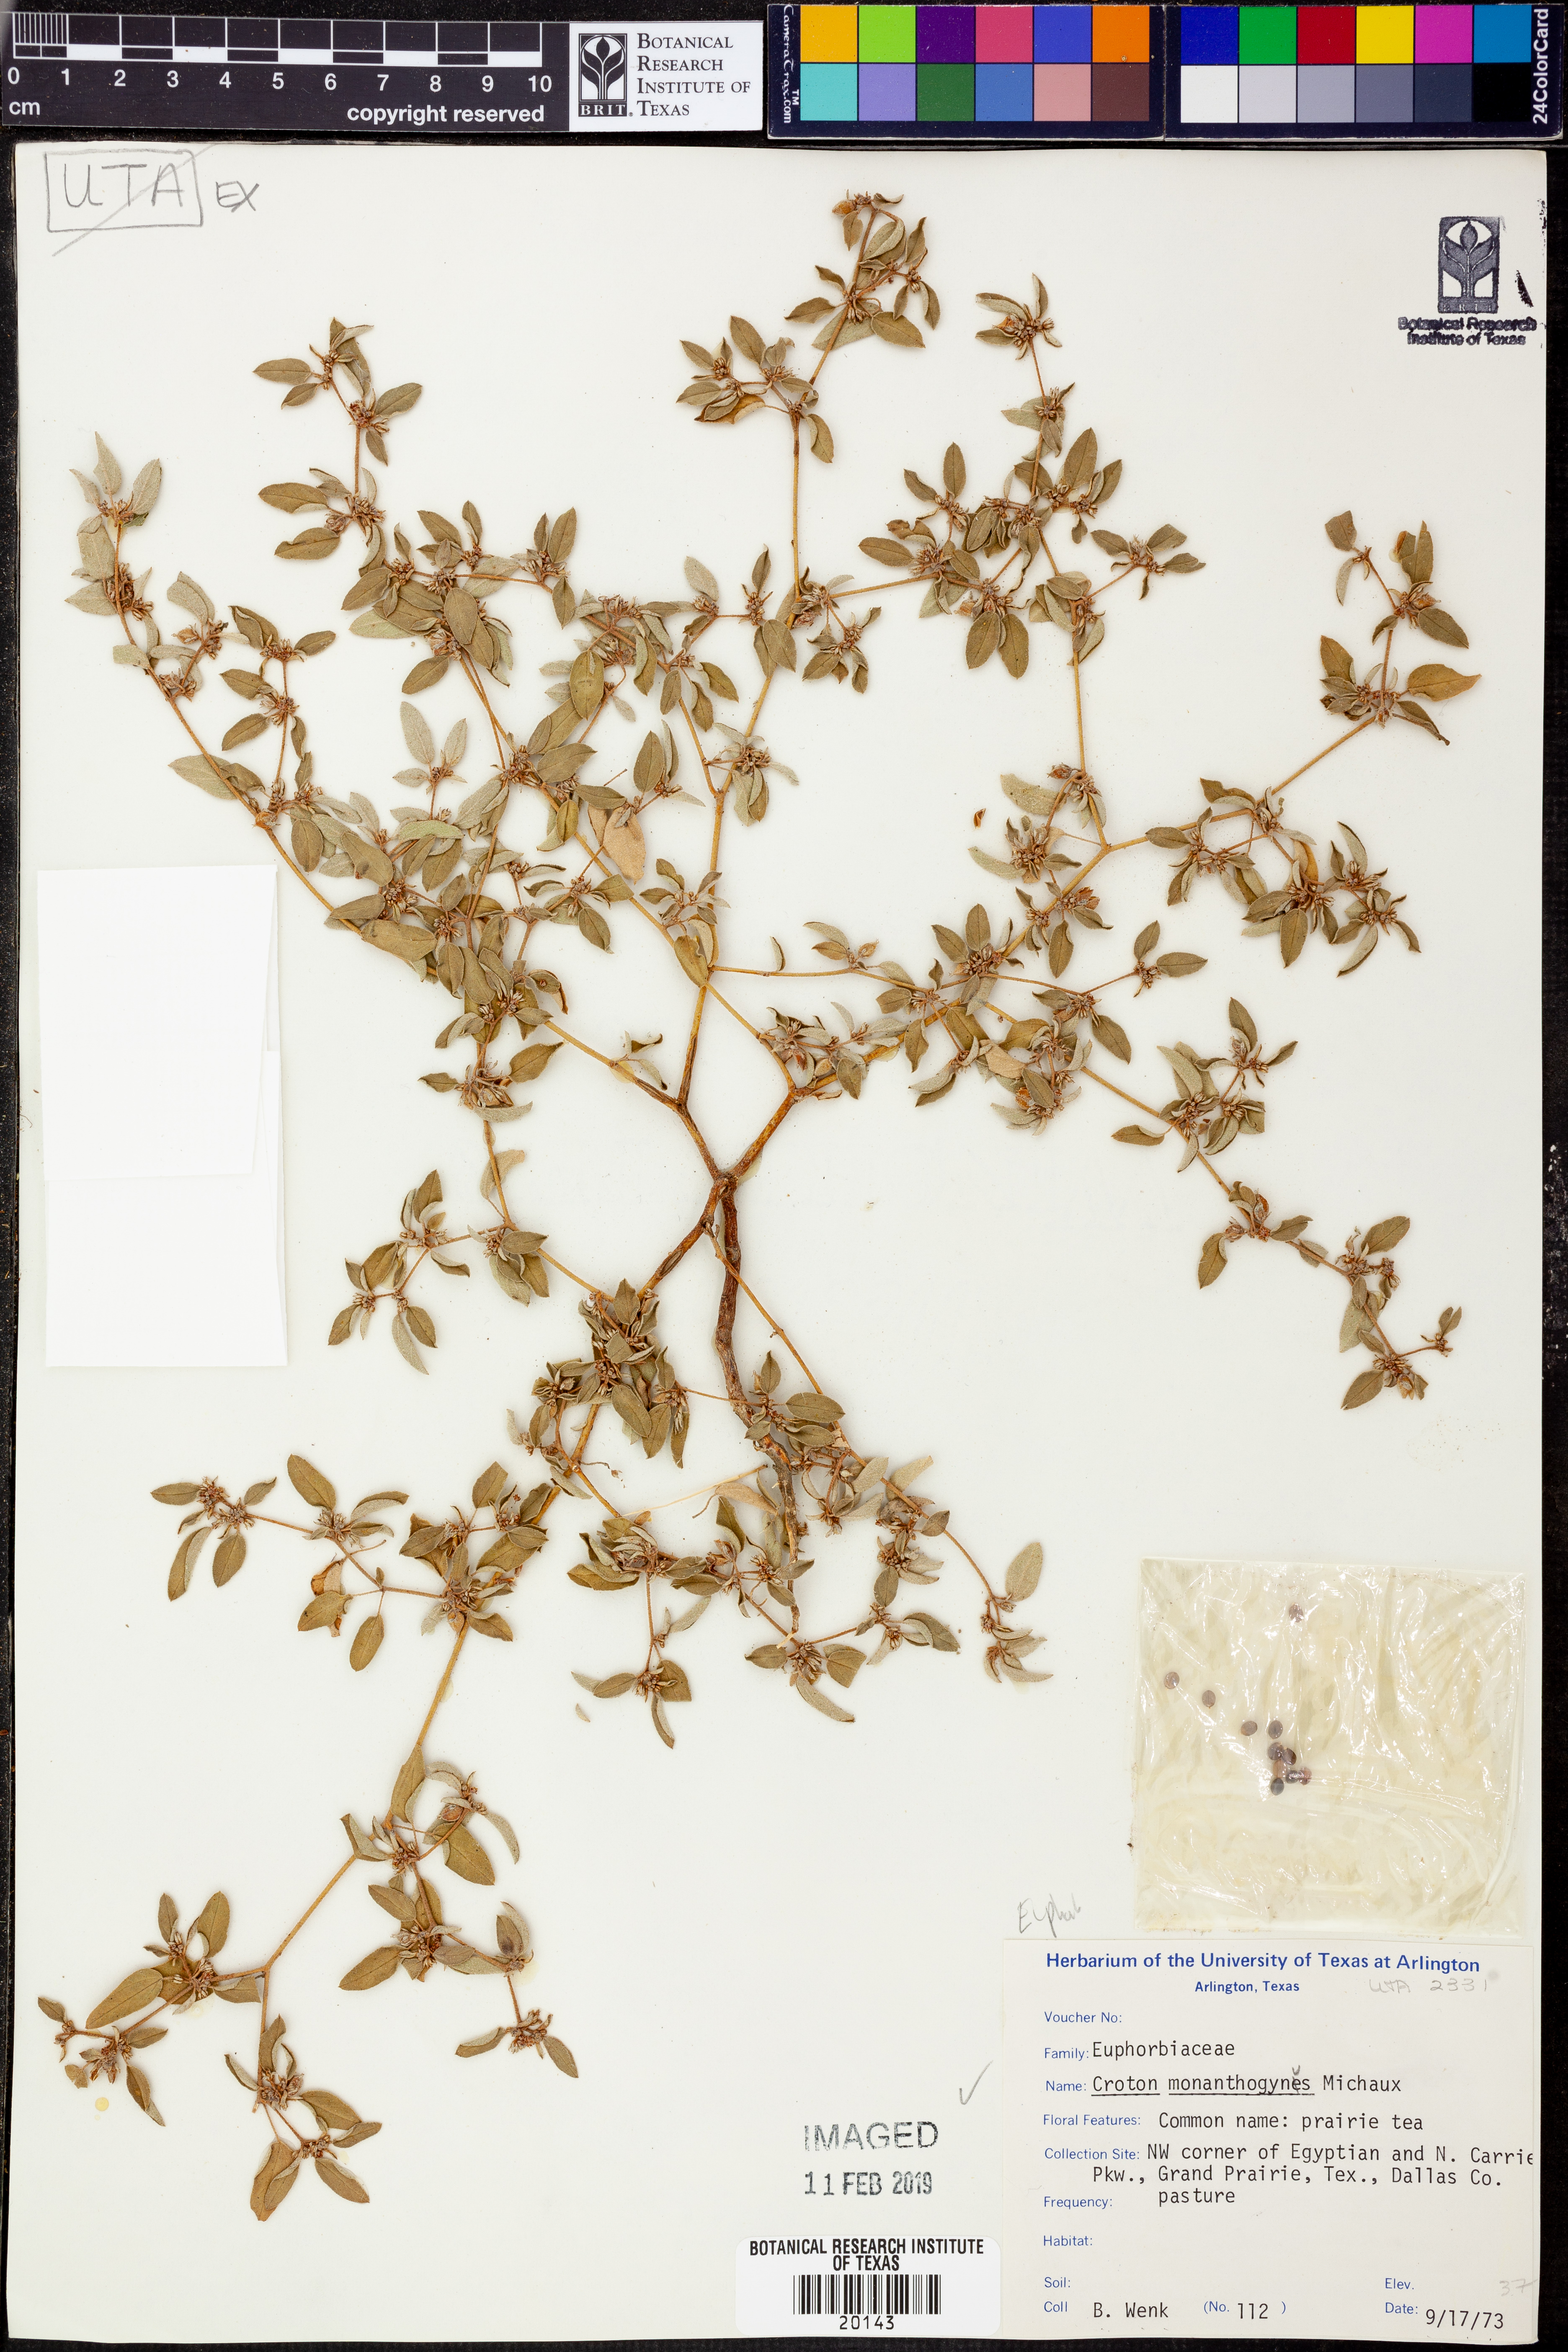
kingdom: Plantae
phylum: Tracheophyta
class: Magnoliopsida
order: Malpighiales
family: Euphorbiaceae
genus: Croton
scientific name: Croton monanthogynus
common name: One-seed croton
